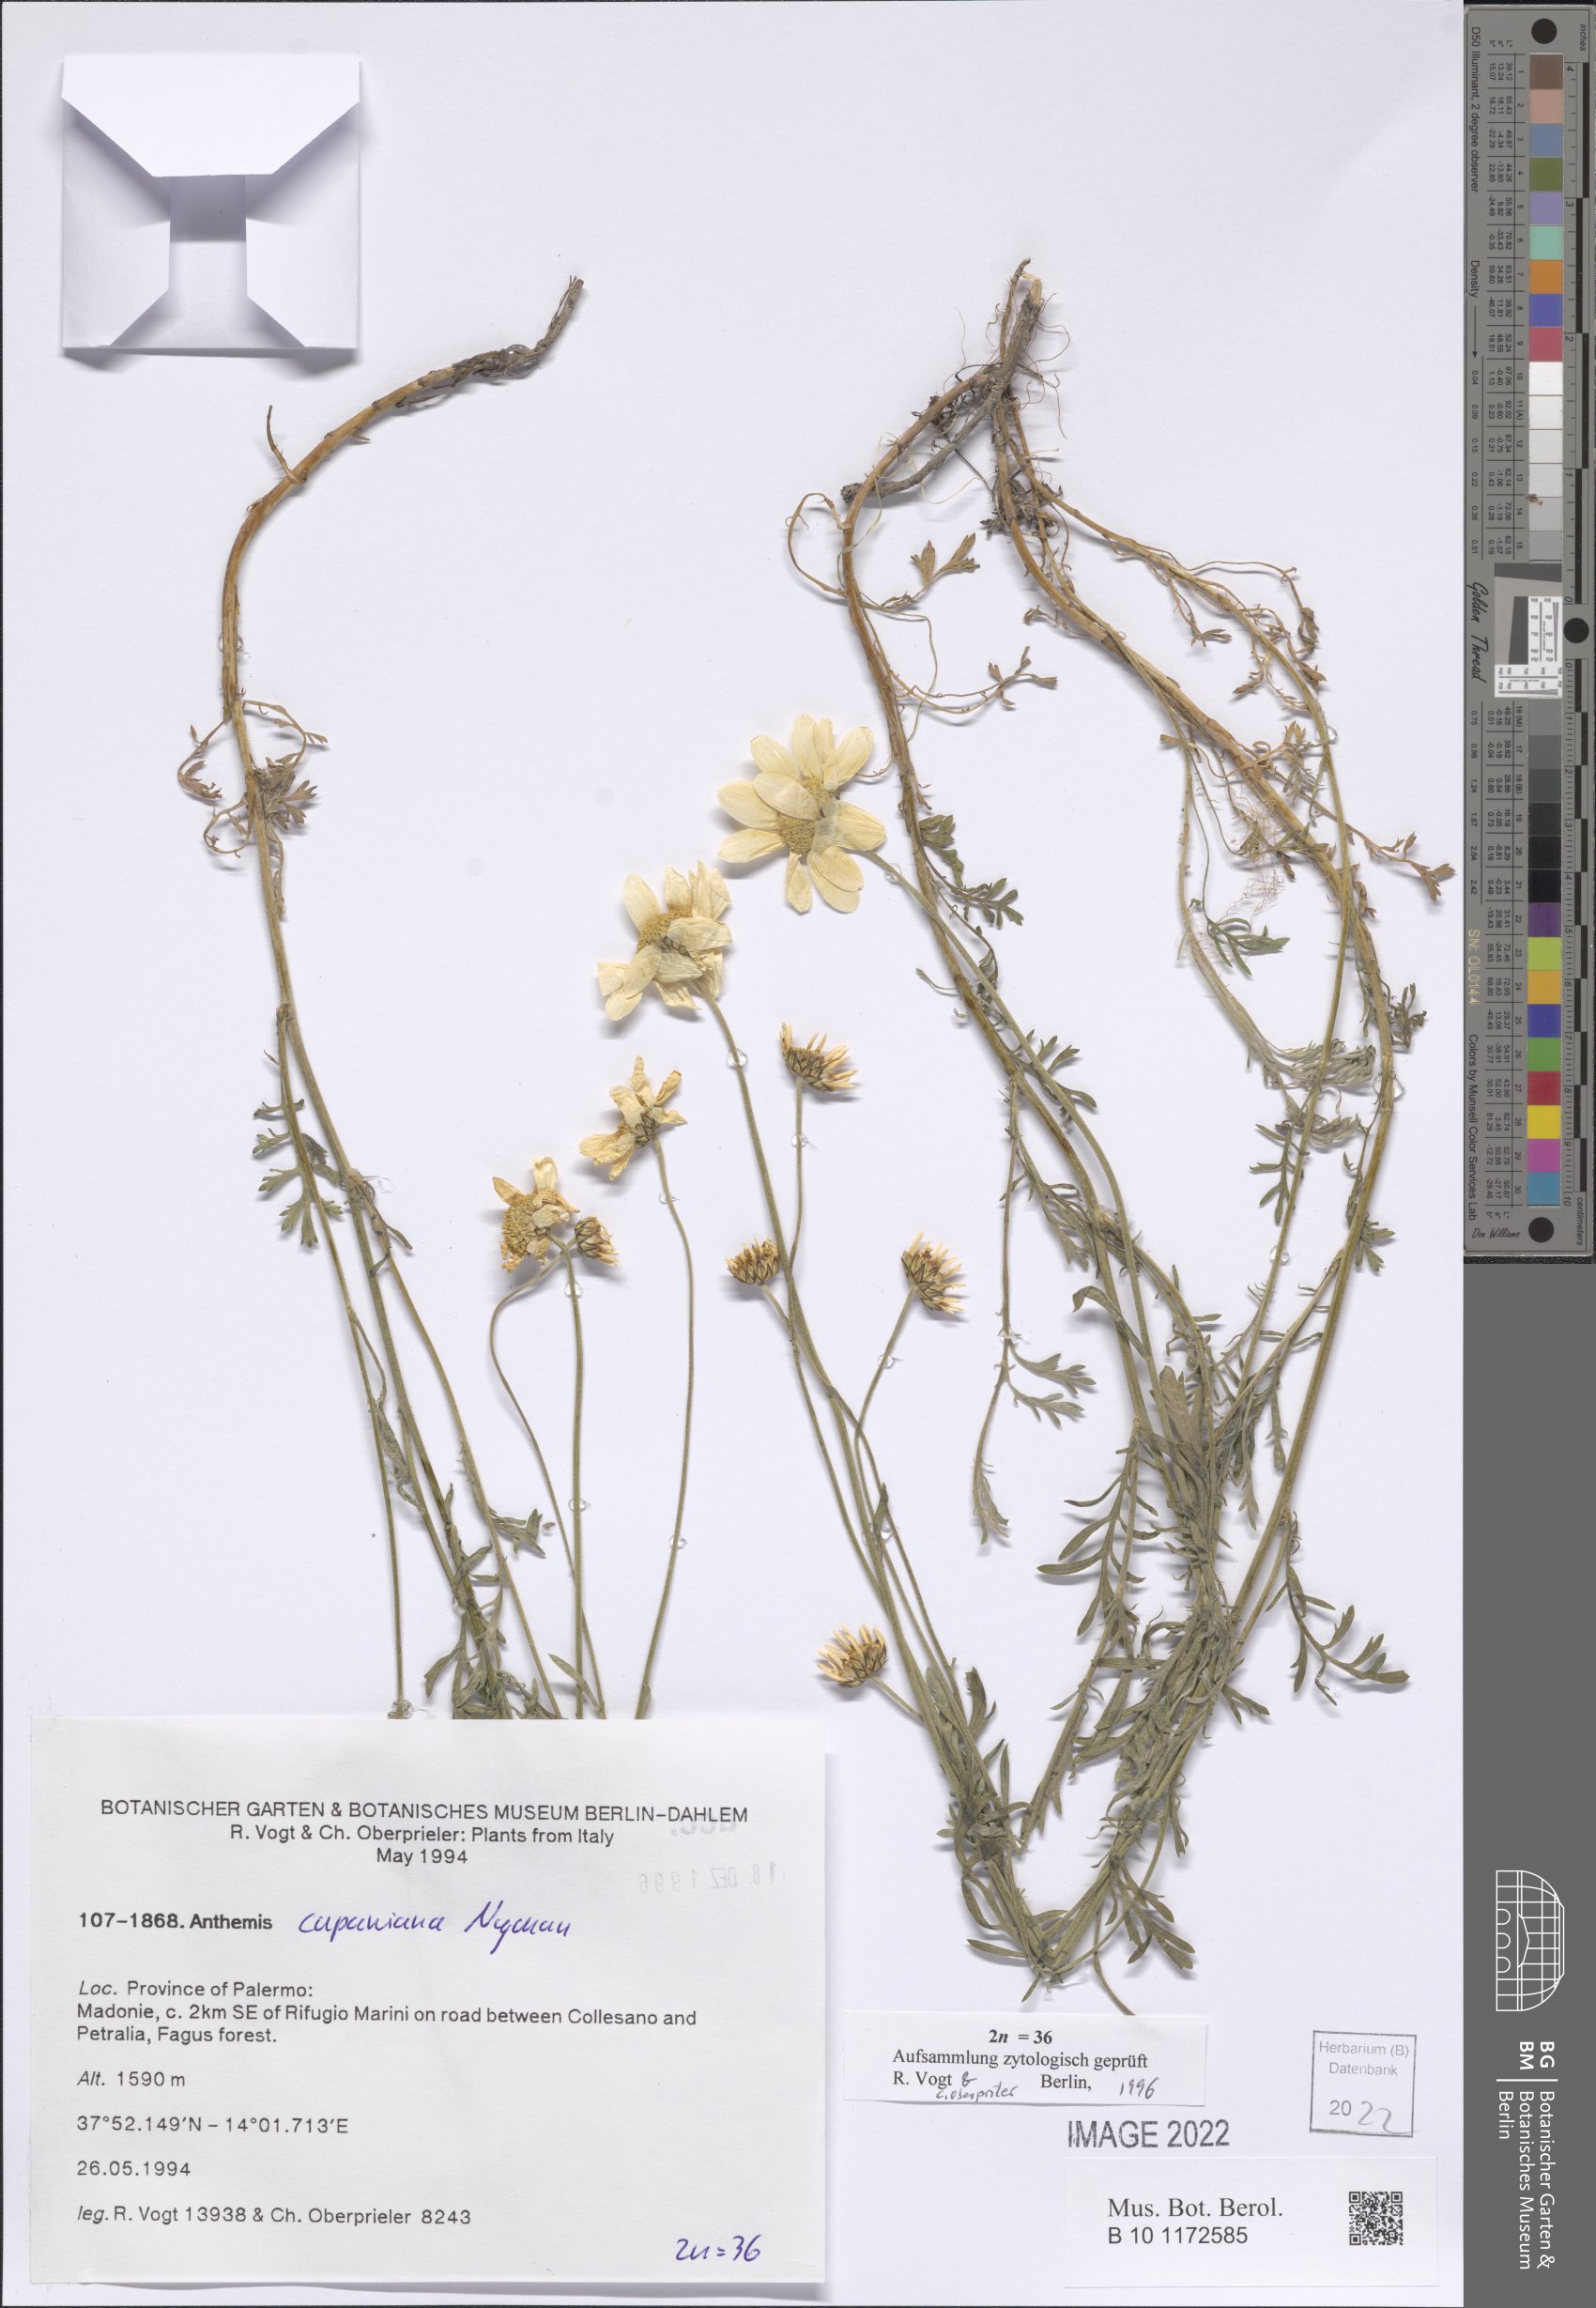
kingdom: Plantae
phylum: Tracheophyta
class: Magnoliopsida
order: Asterales
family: Asteraceae
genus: Anthemis
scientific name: Anthemis cupaniana
